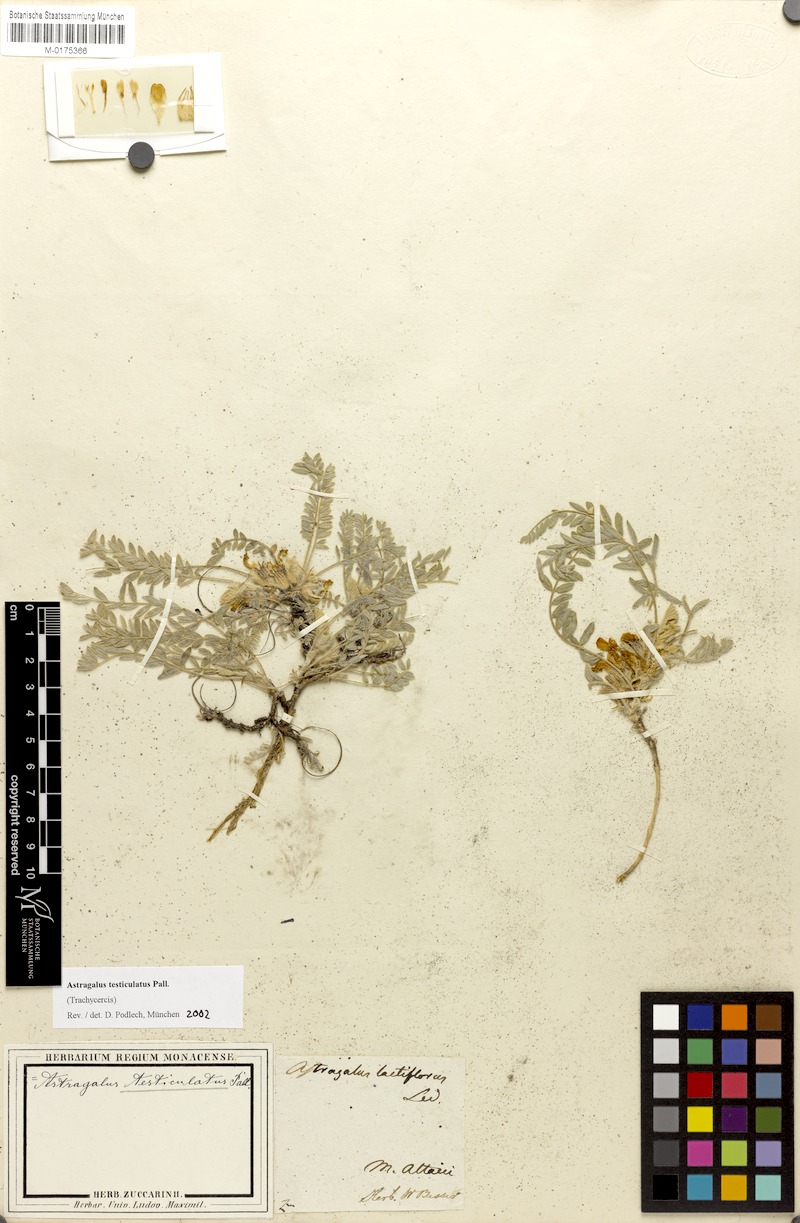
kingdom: Plantae
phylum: Tracheophyta
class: Magnoliopsida
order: Fabales
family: Fabaceae
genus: Astragalus
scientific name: Astragalus testiculatus
